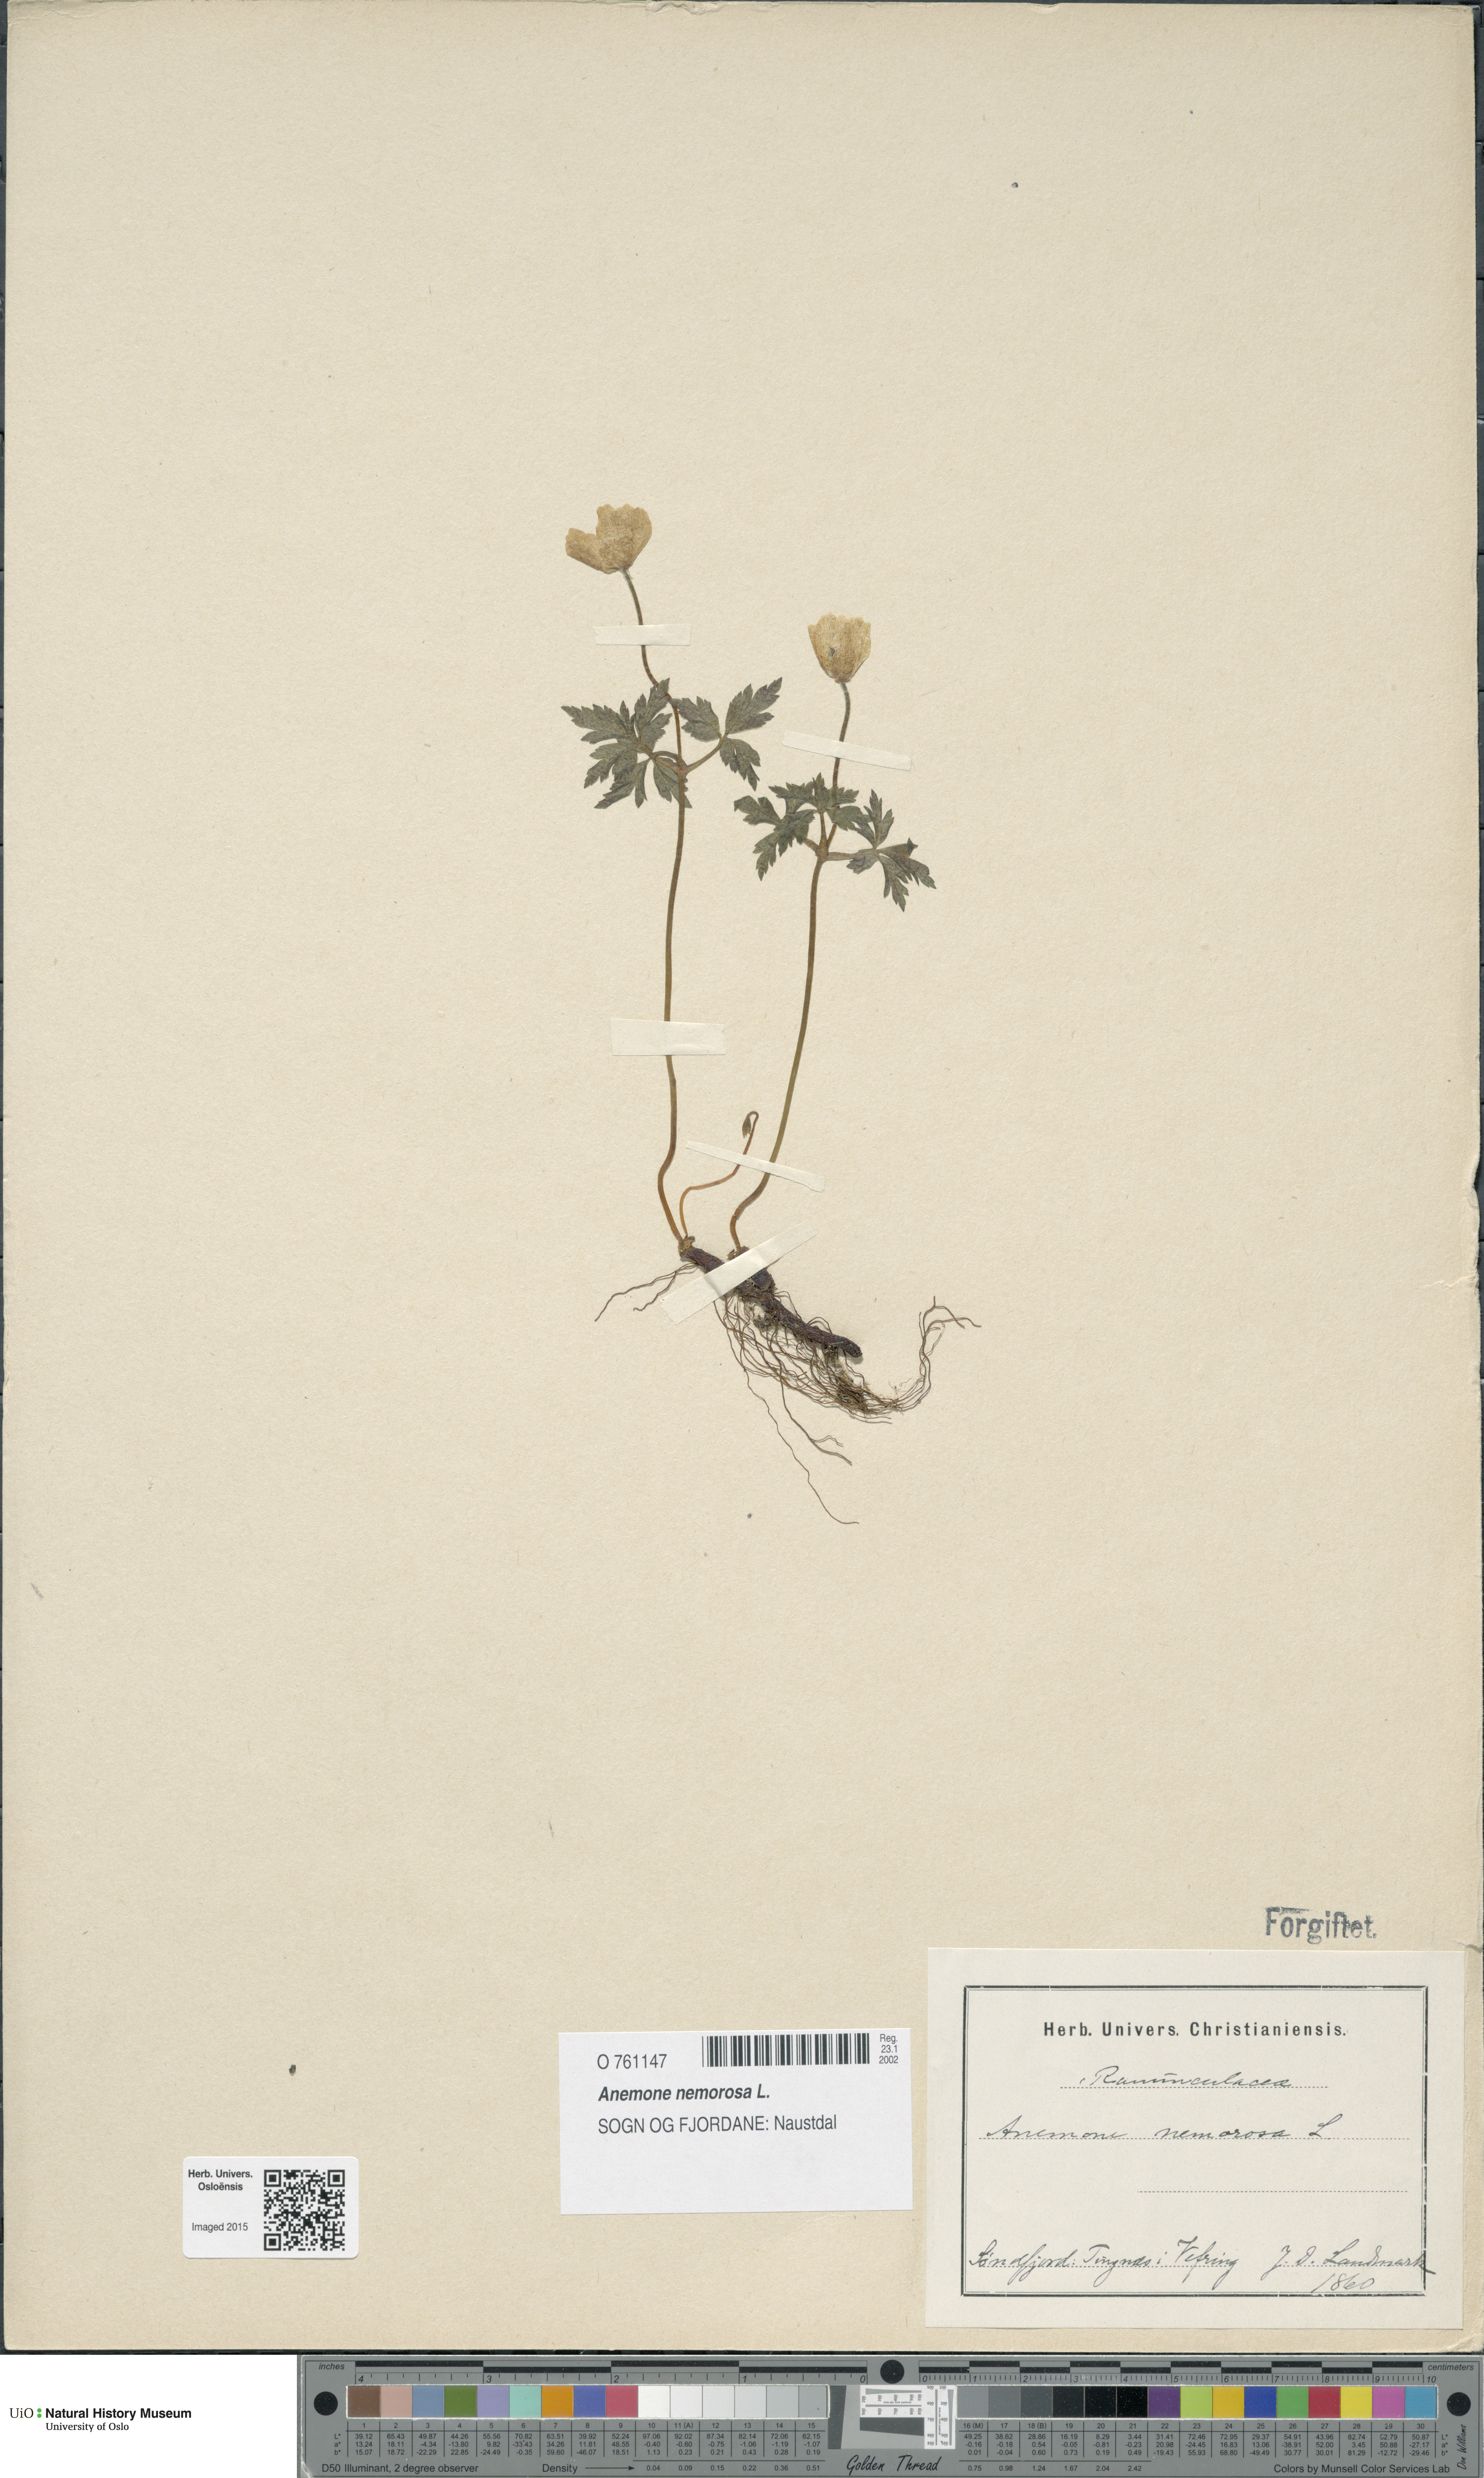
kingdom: Plantae
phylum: Tracheophyta
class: Magnoliopsida
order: Ranunculales
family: Ranunculaceae
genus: Anemone
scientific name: Anemone nemorosa
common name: Wood anemone
